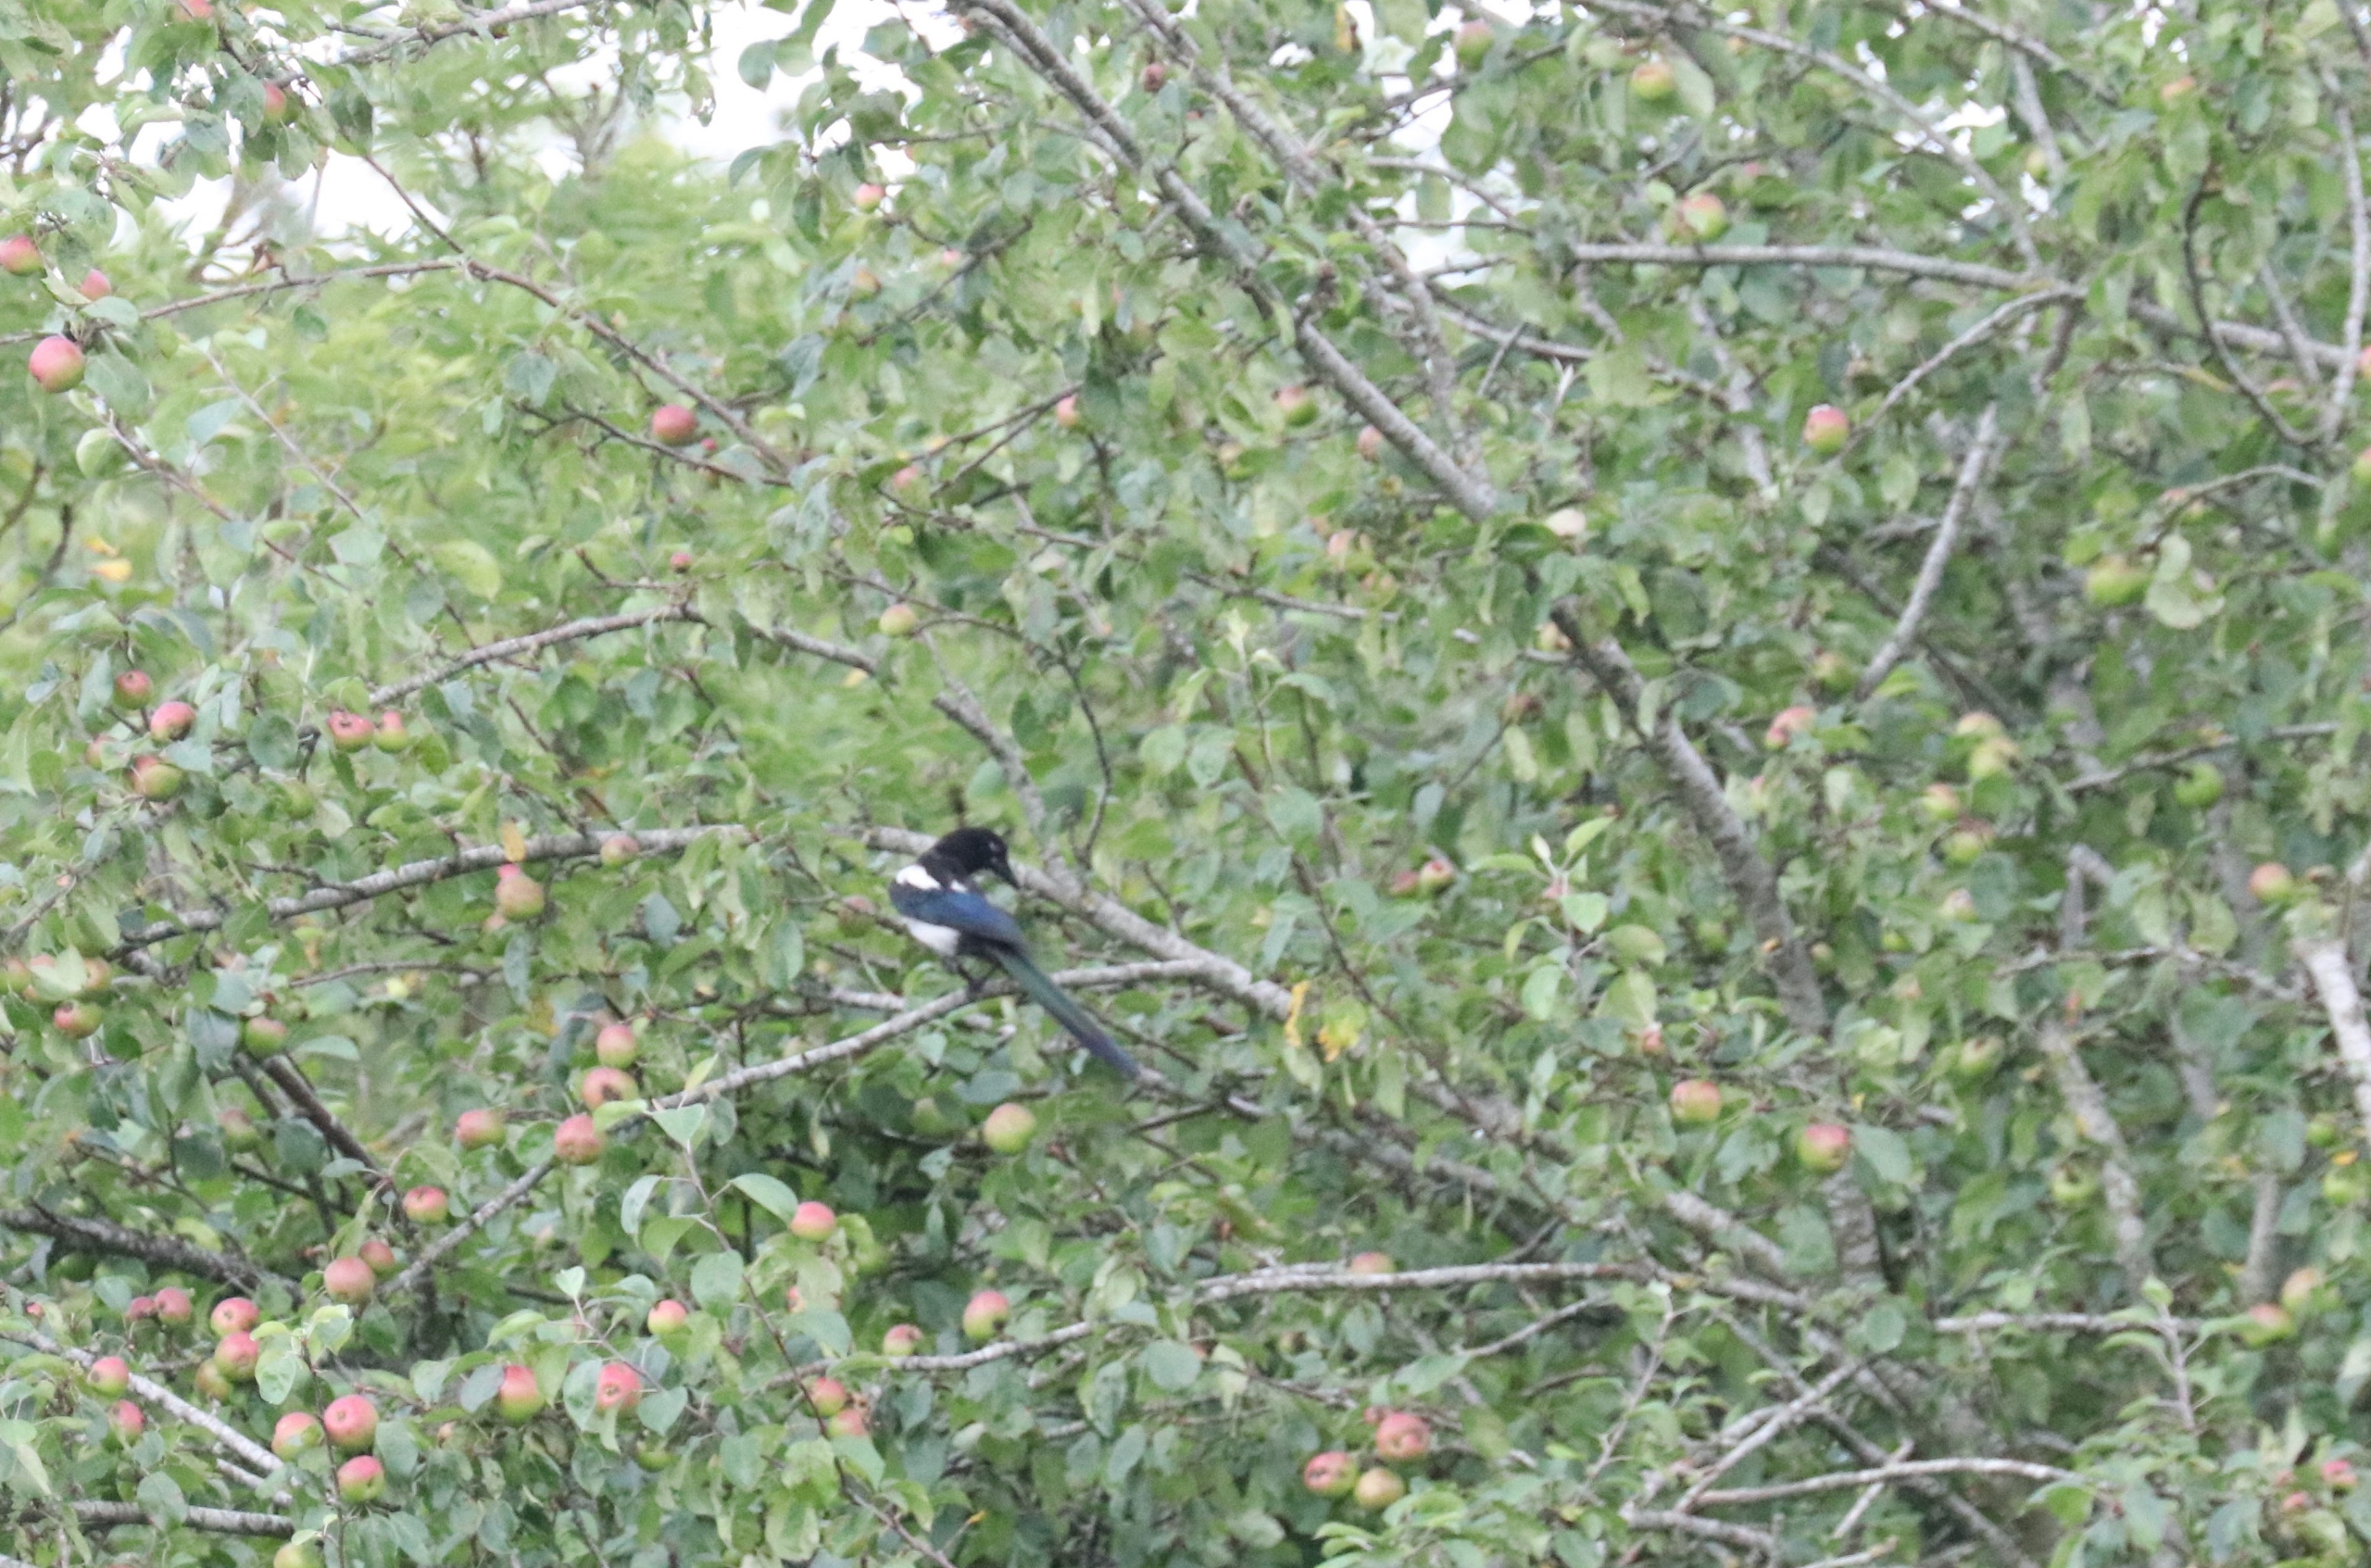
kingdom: Animalia
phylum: Chordata
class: Aves
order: Passeriformes
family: Corvidae
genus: Pica
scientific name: Pica pica
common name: Husskade
